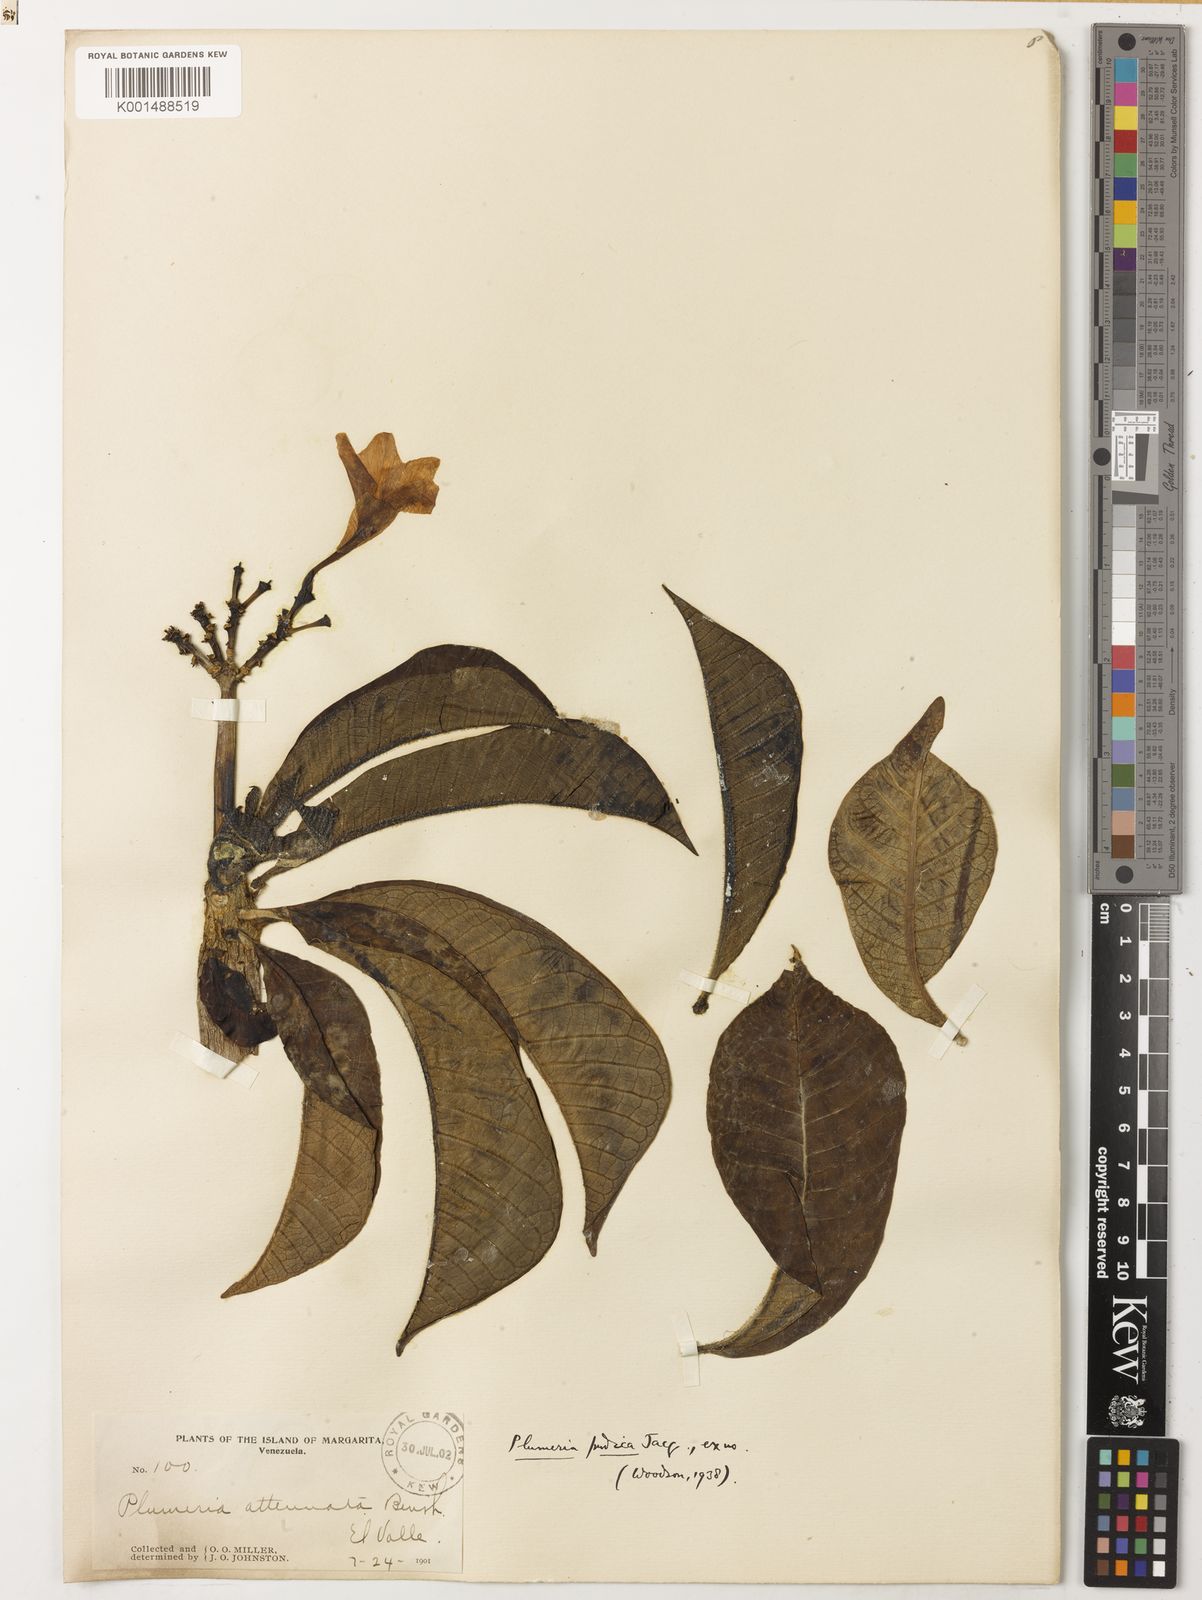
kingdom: Plantae
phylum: Tracheophyta
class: Magnoliopsida
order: Gentianales
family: Apocynaceae
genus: Plumeria
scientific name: Plumeria pudica
